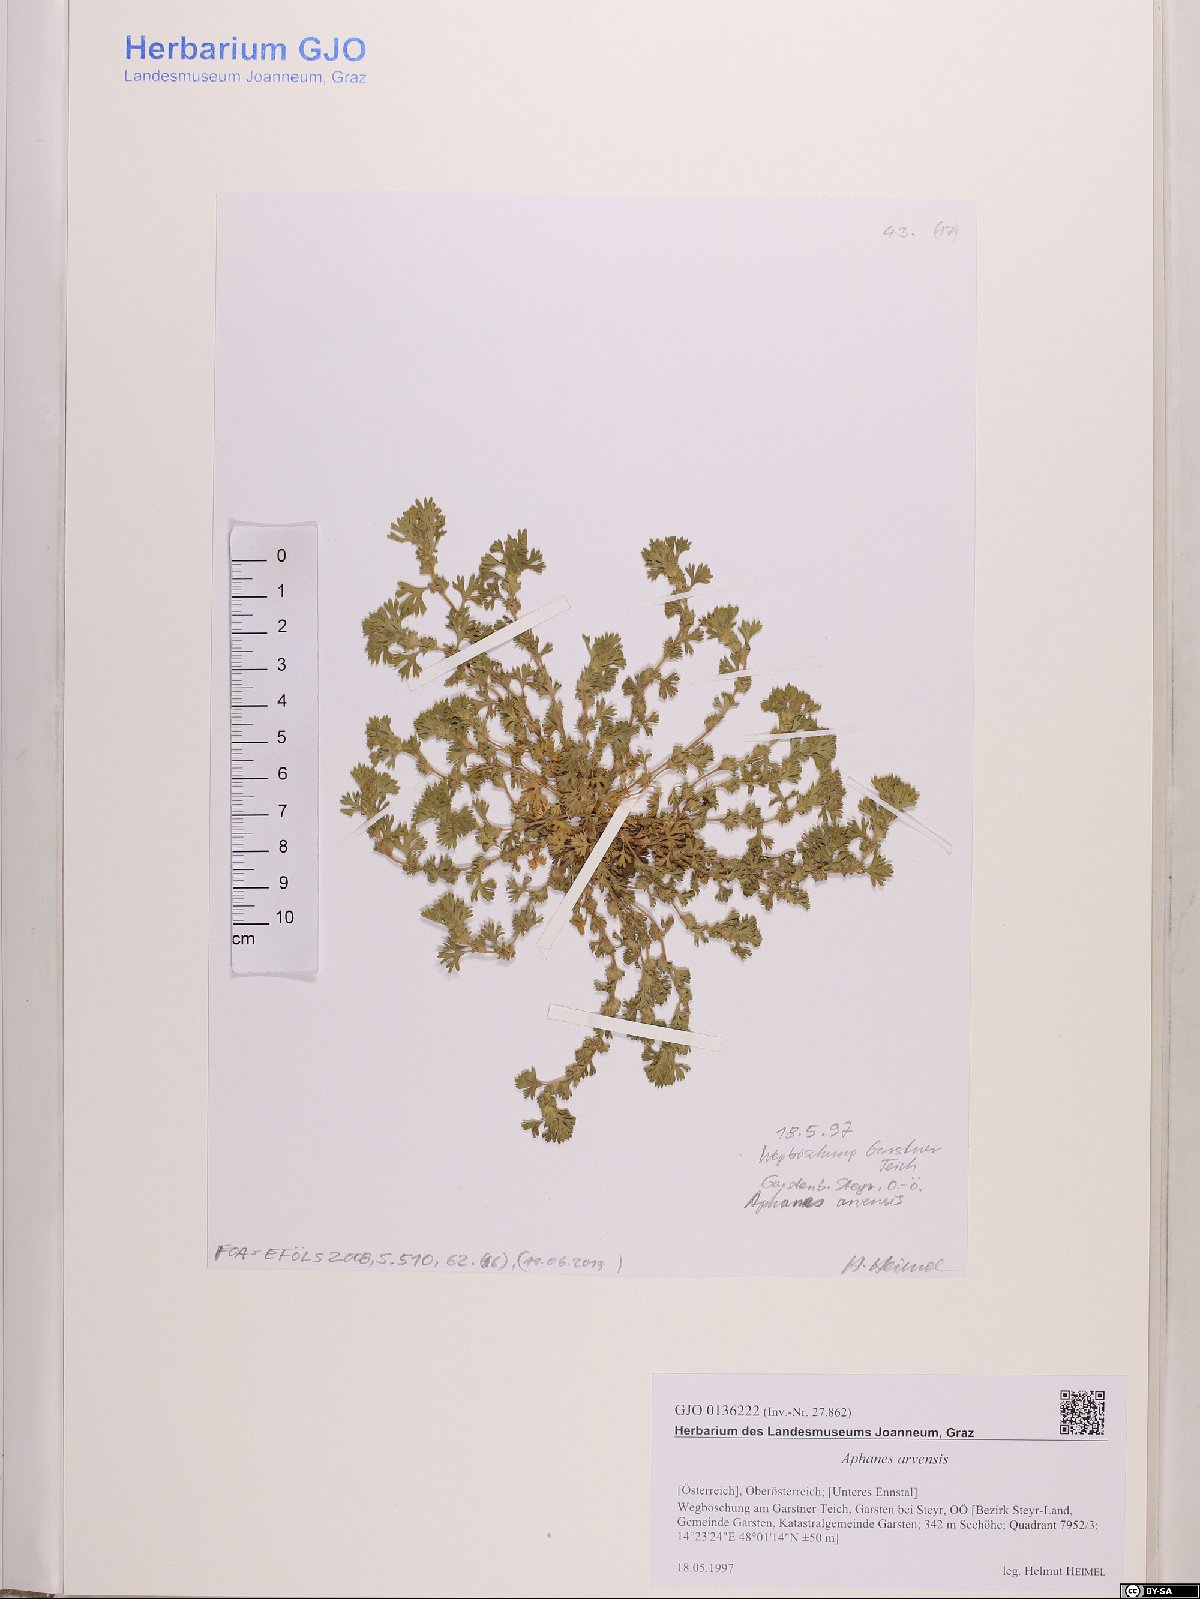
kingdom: Plantae
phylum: Tracheophyta
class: Magnoliopsida
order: Rosales
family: Rosaceae
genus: Aphanes
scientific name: Aphanes arvensis
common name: Parsley-piert
